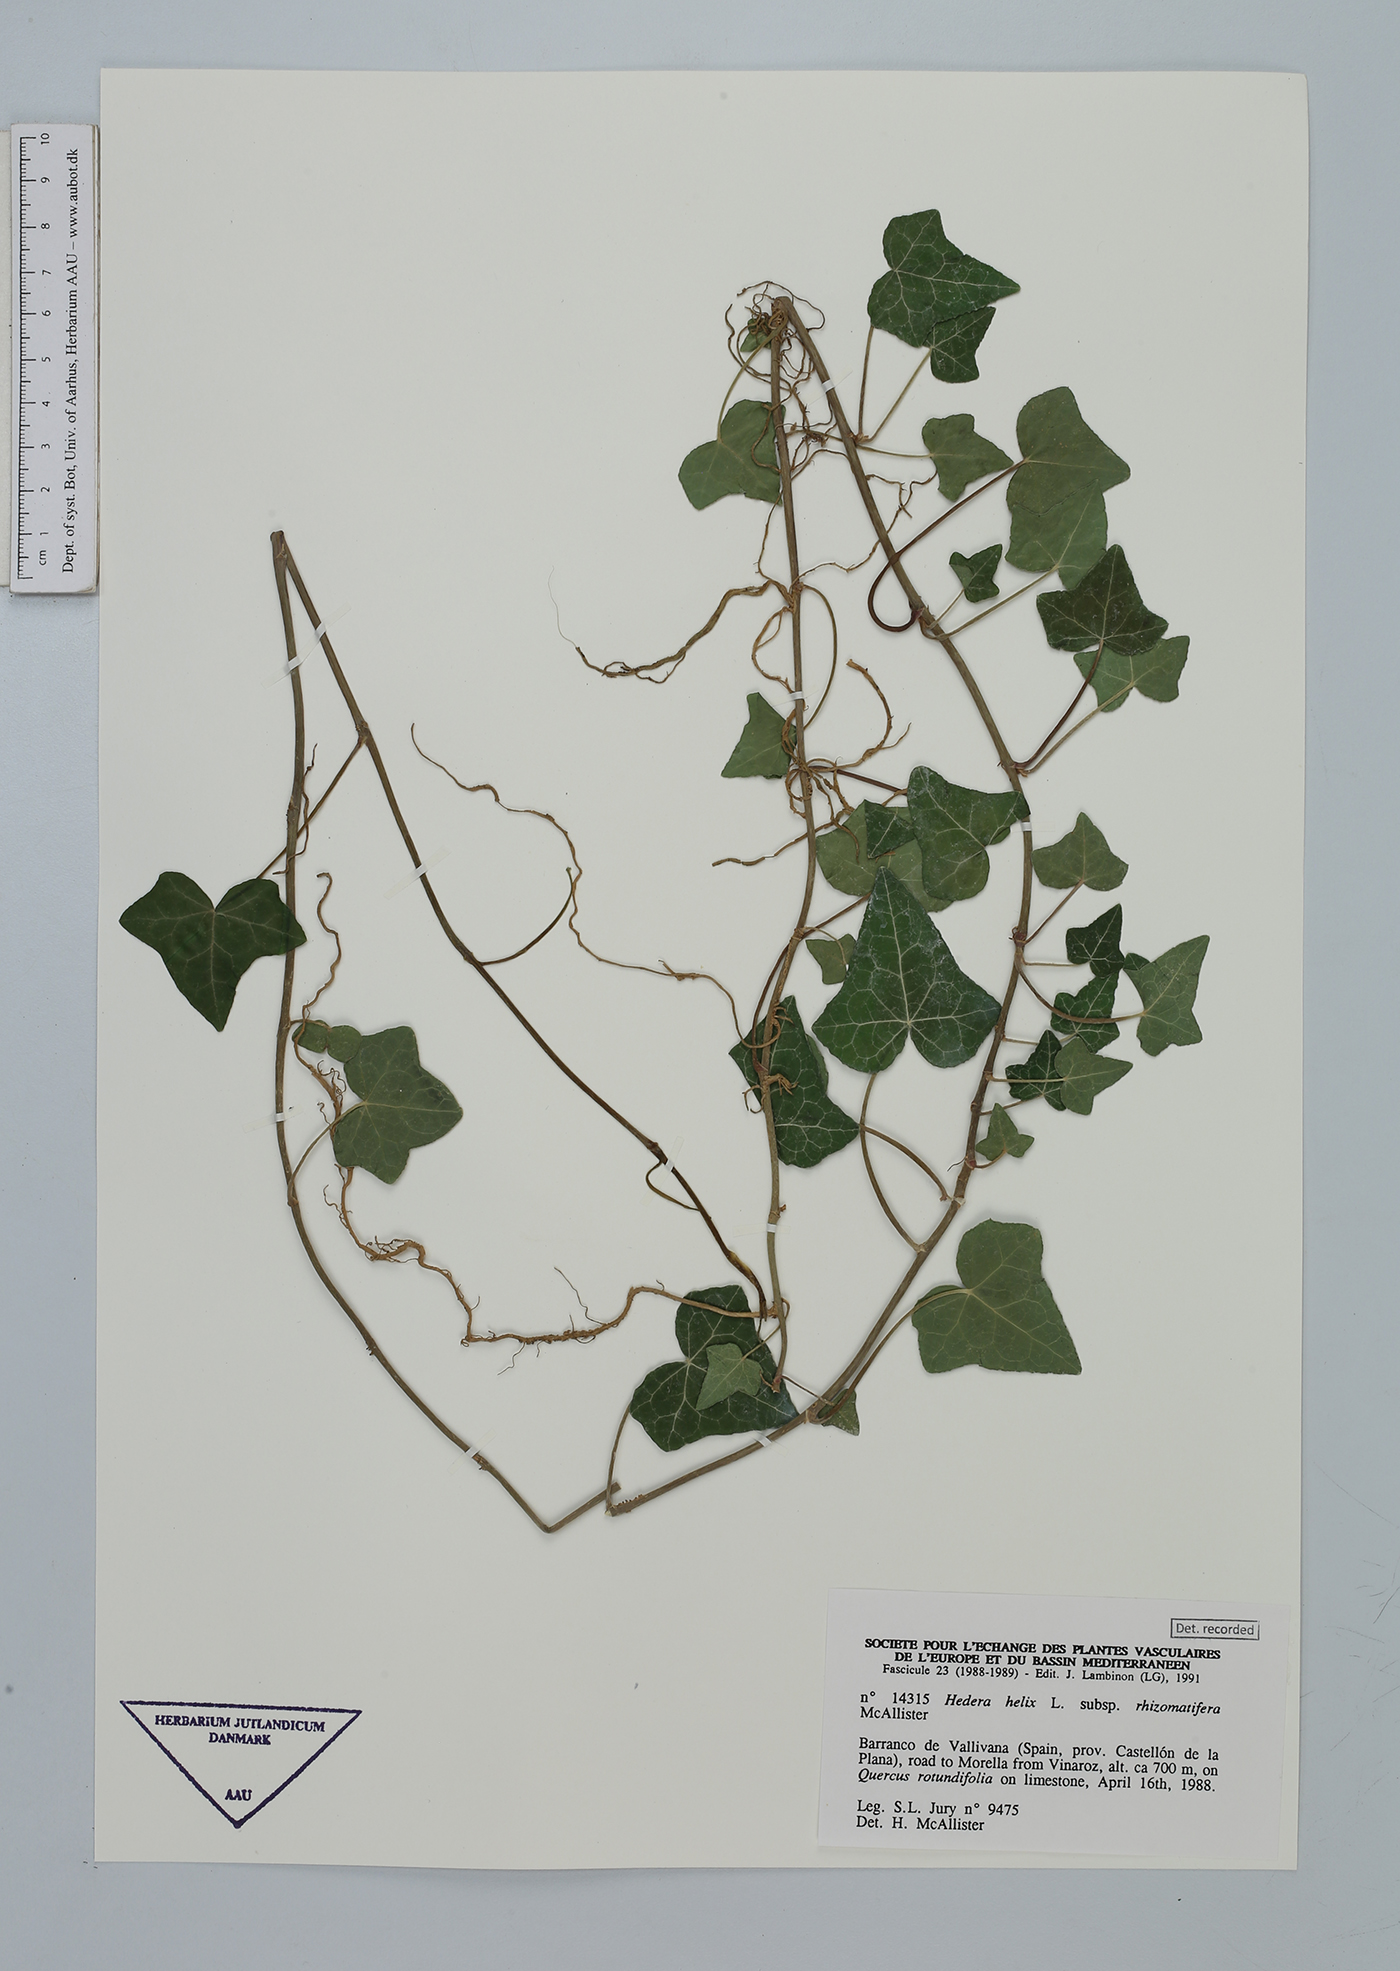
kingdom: Plantae
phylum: Tracheophyta
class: Magnoliopsida
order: Apiales
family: Araliaceae
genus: Hedera
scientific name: Hedera helix
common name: Ivy
